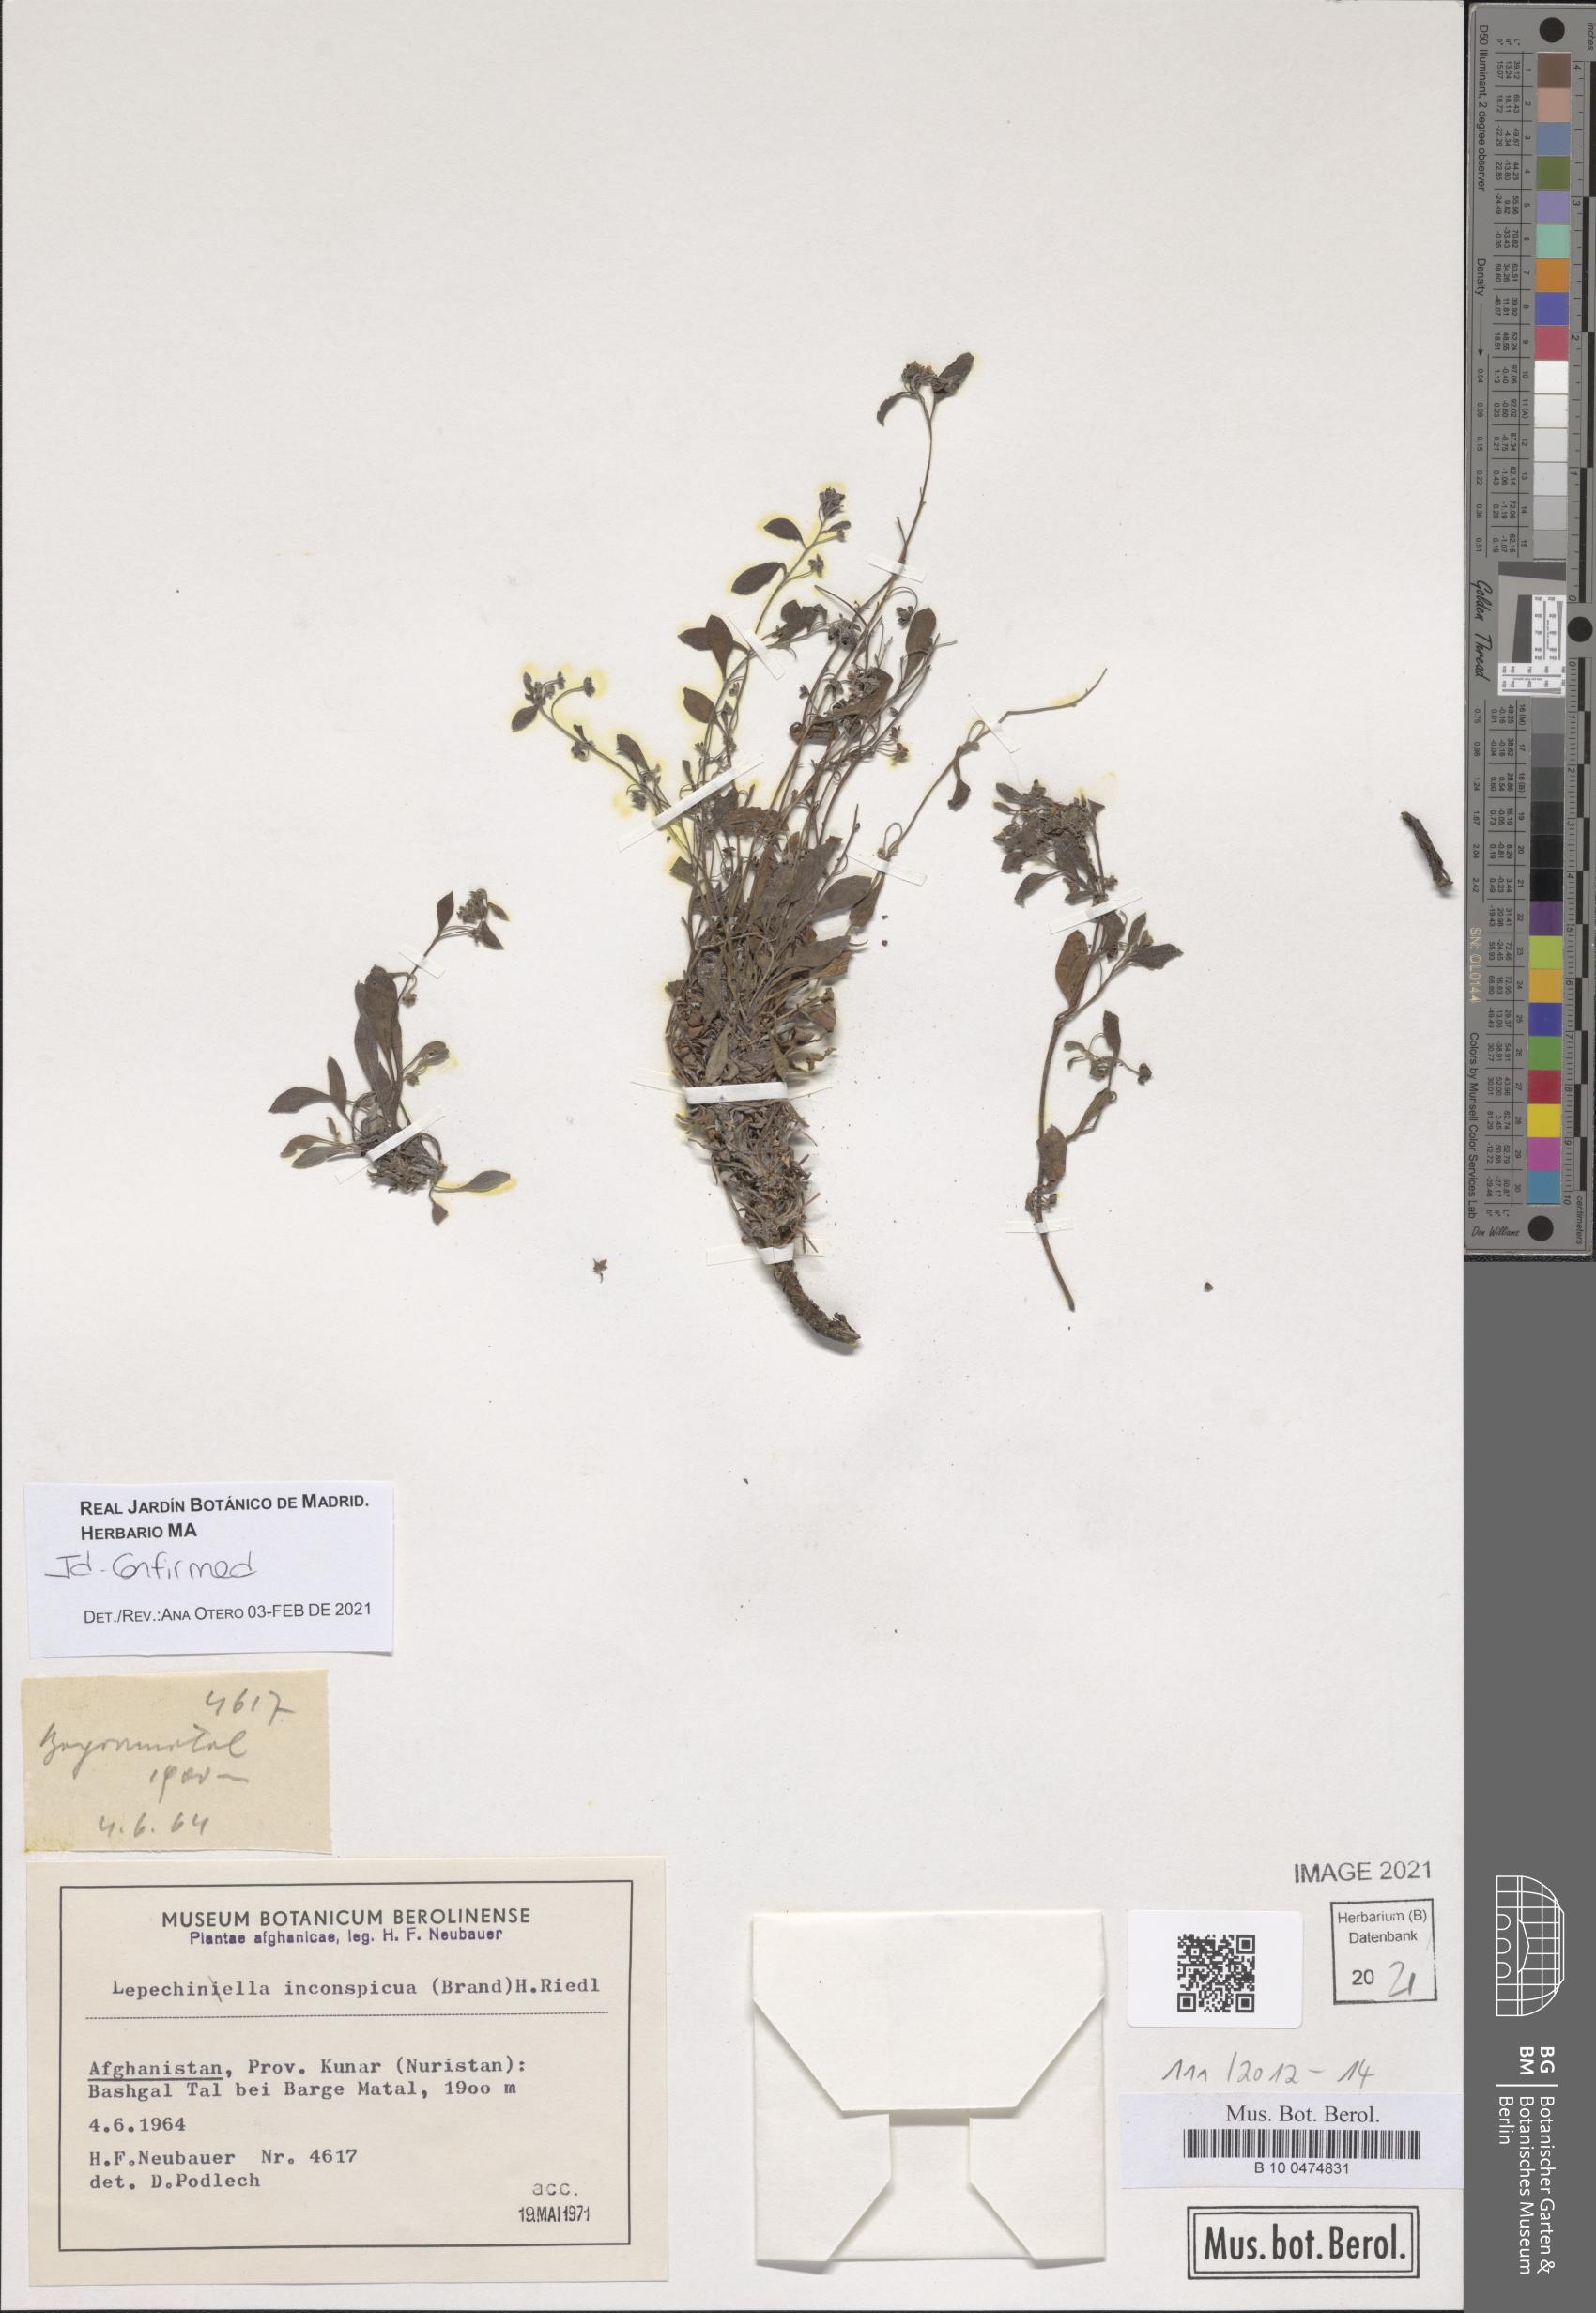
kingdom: Plantae
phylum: Tracheophyta
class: Magnoliopsida
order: Boraginales
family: Boraginaceae
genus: Lepechiniella
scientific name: Lepechiniella microcarpa
